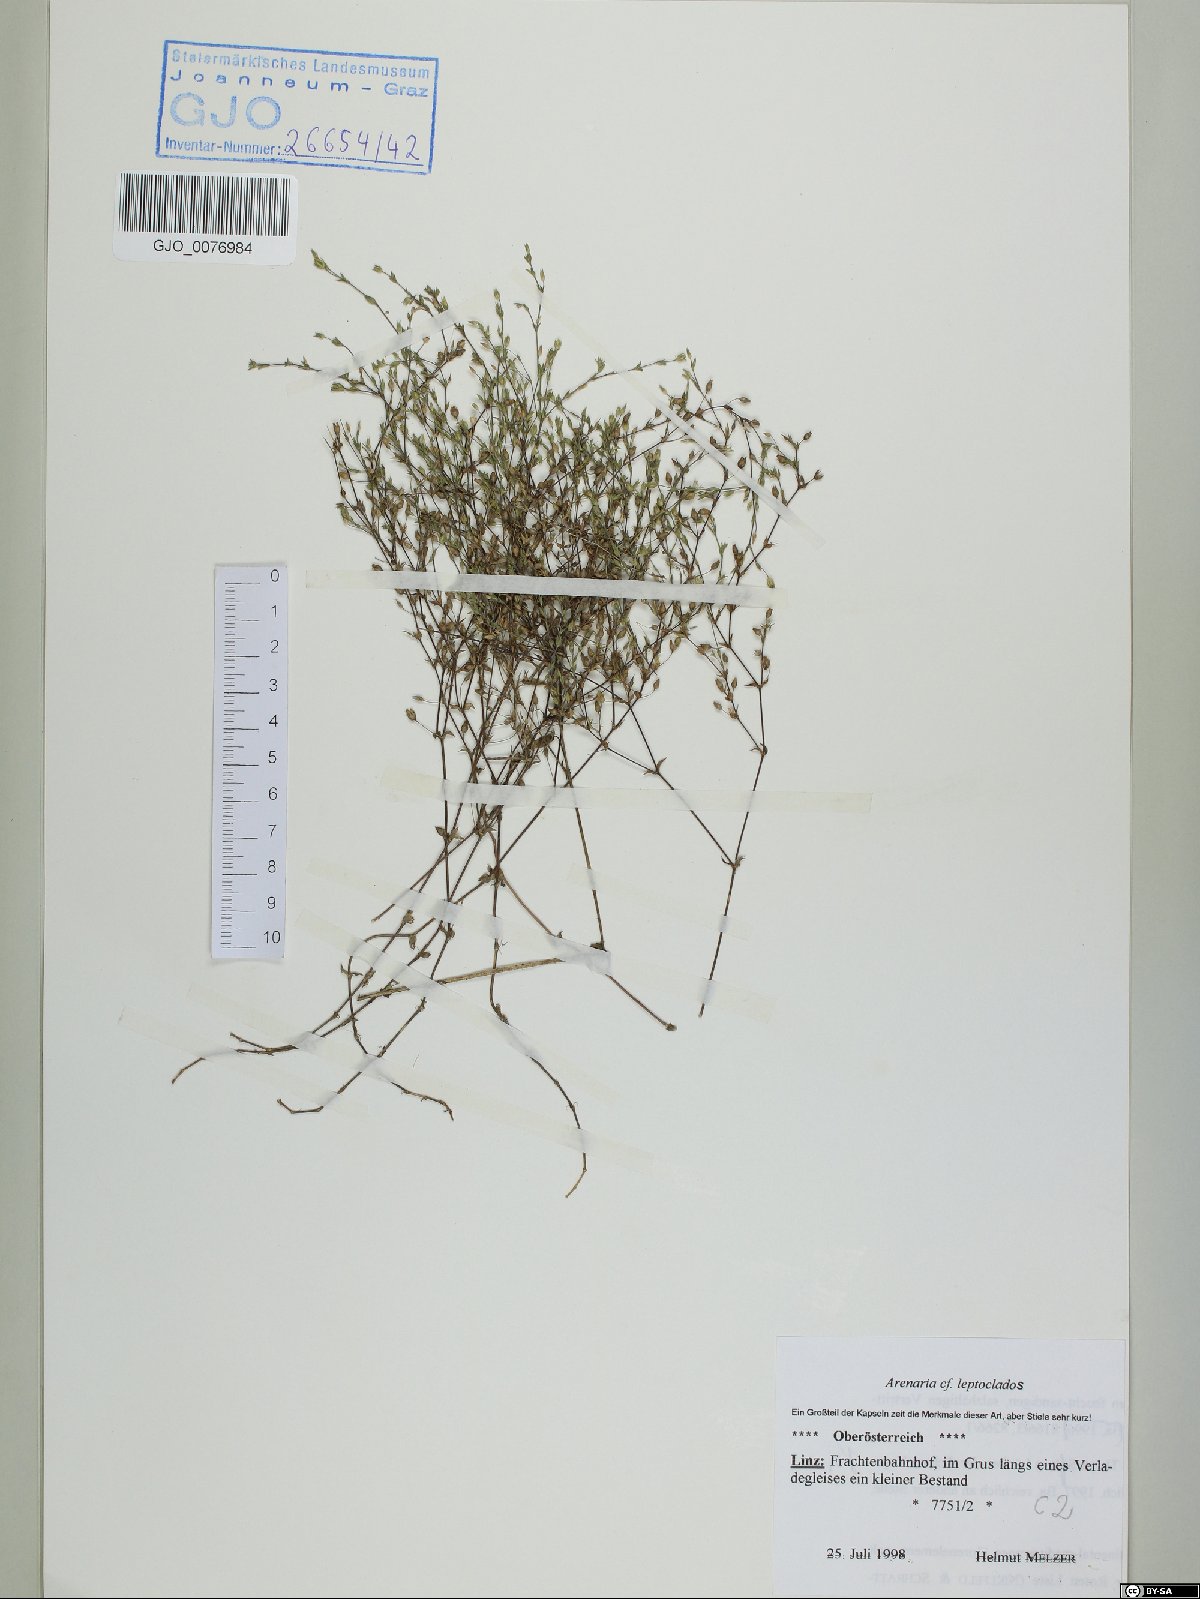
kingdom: Plantae
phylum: Tracheophyta
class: Magnoliopsida
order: Caryophyllales
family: Caryophyllaceae
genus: Arenaria
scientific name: Arenaria leptoclados
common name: Thyme-leaved sandwort
